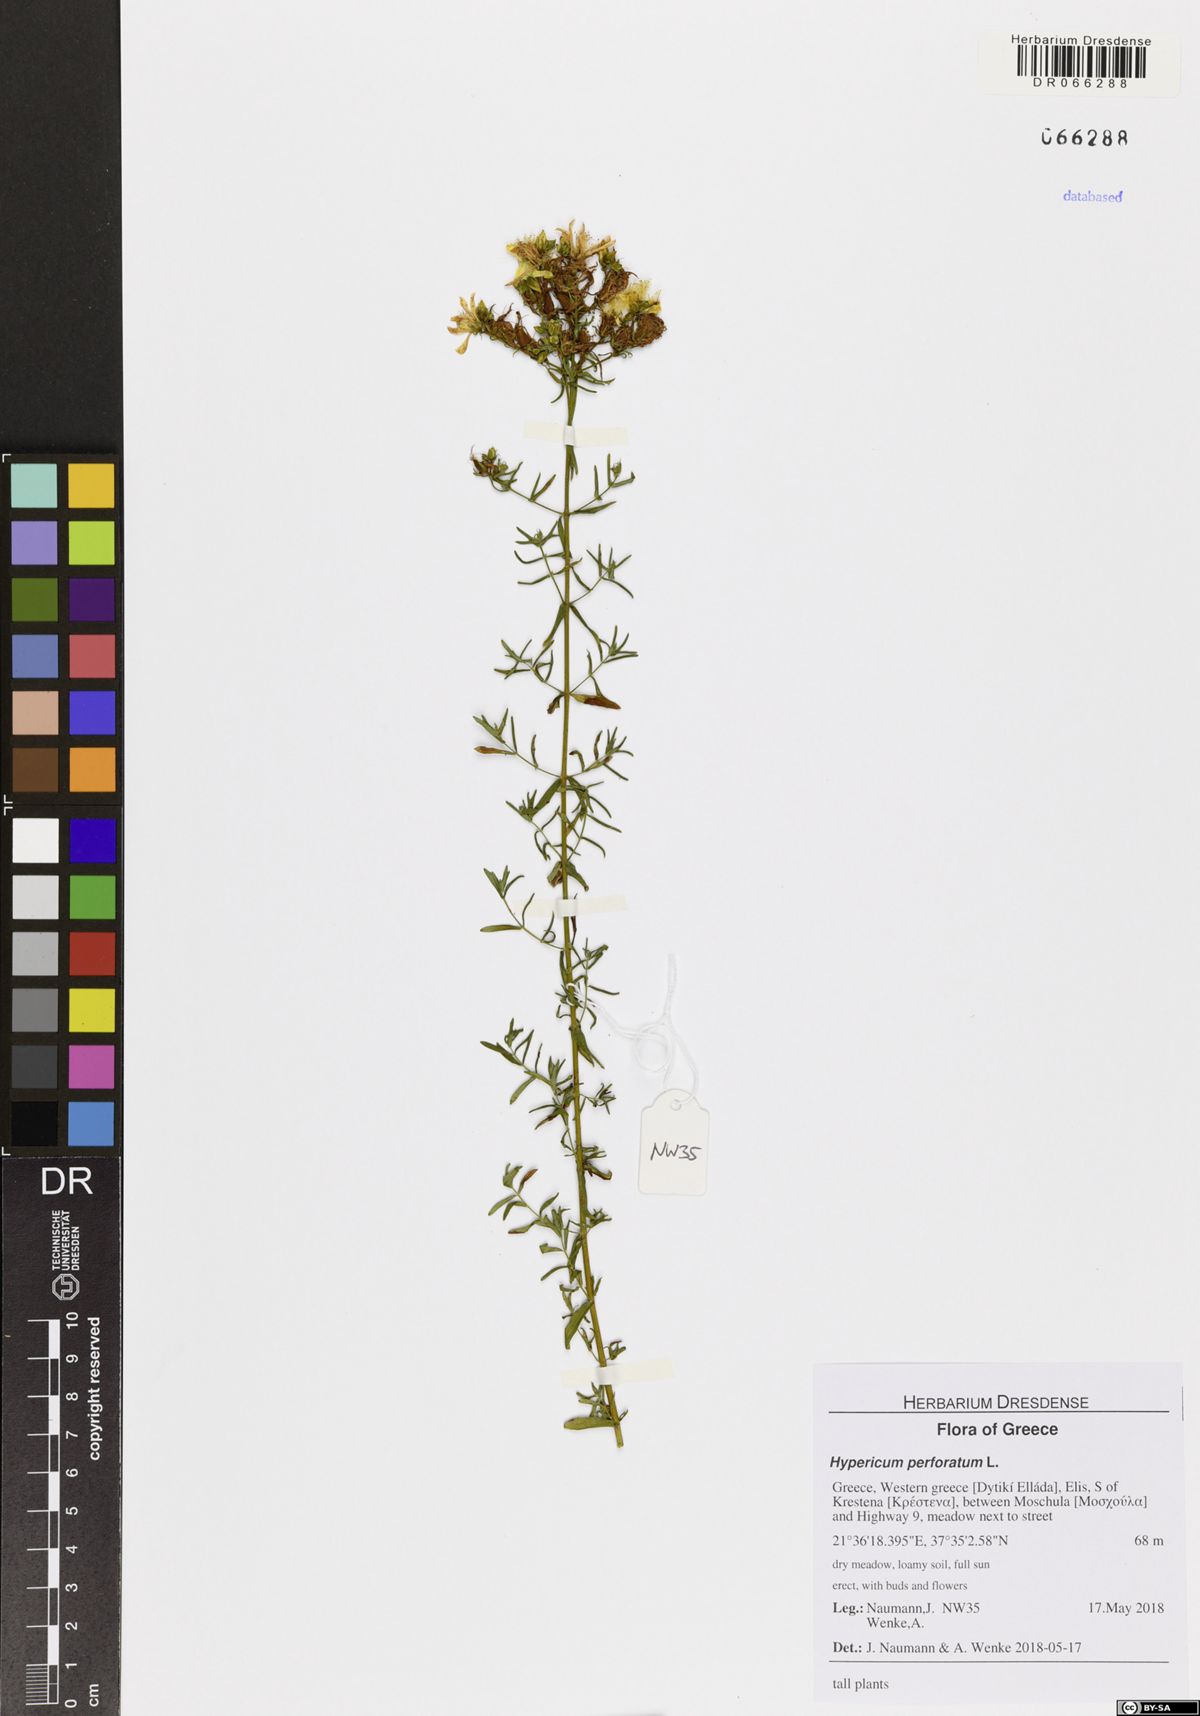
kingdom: Plantae
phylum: Tracheophyta
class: Magnoliopsida
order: Malpighiales
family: Hypericaceae
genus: Hypericum
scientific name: Hypericum perforatum
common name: Common st. johnswort
